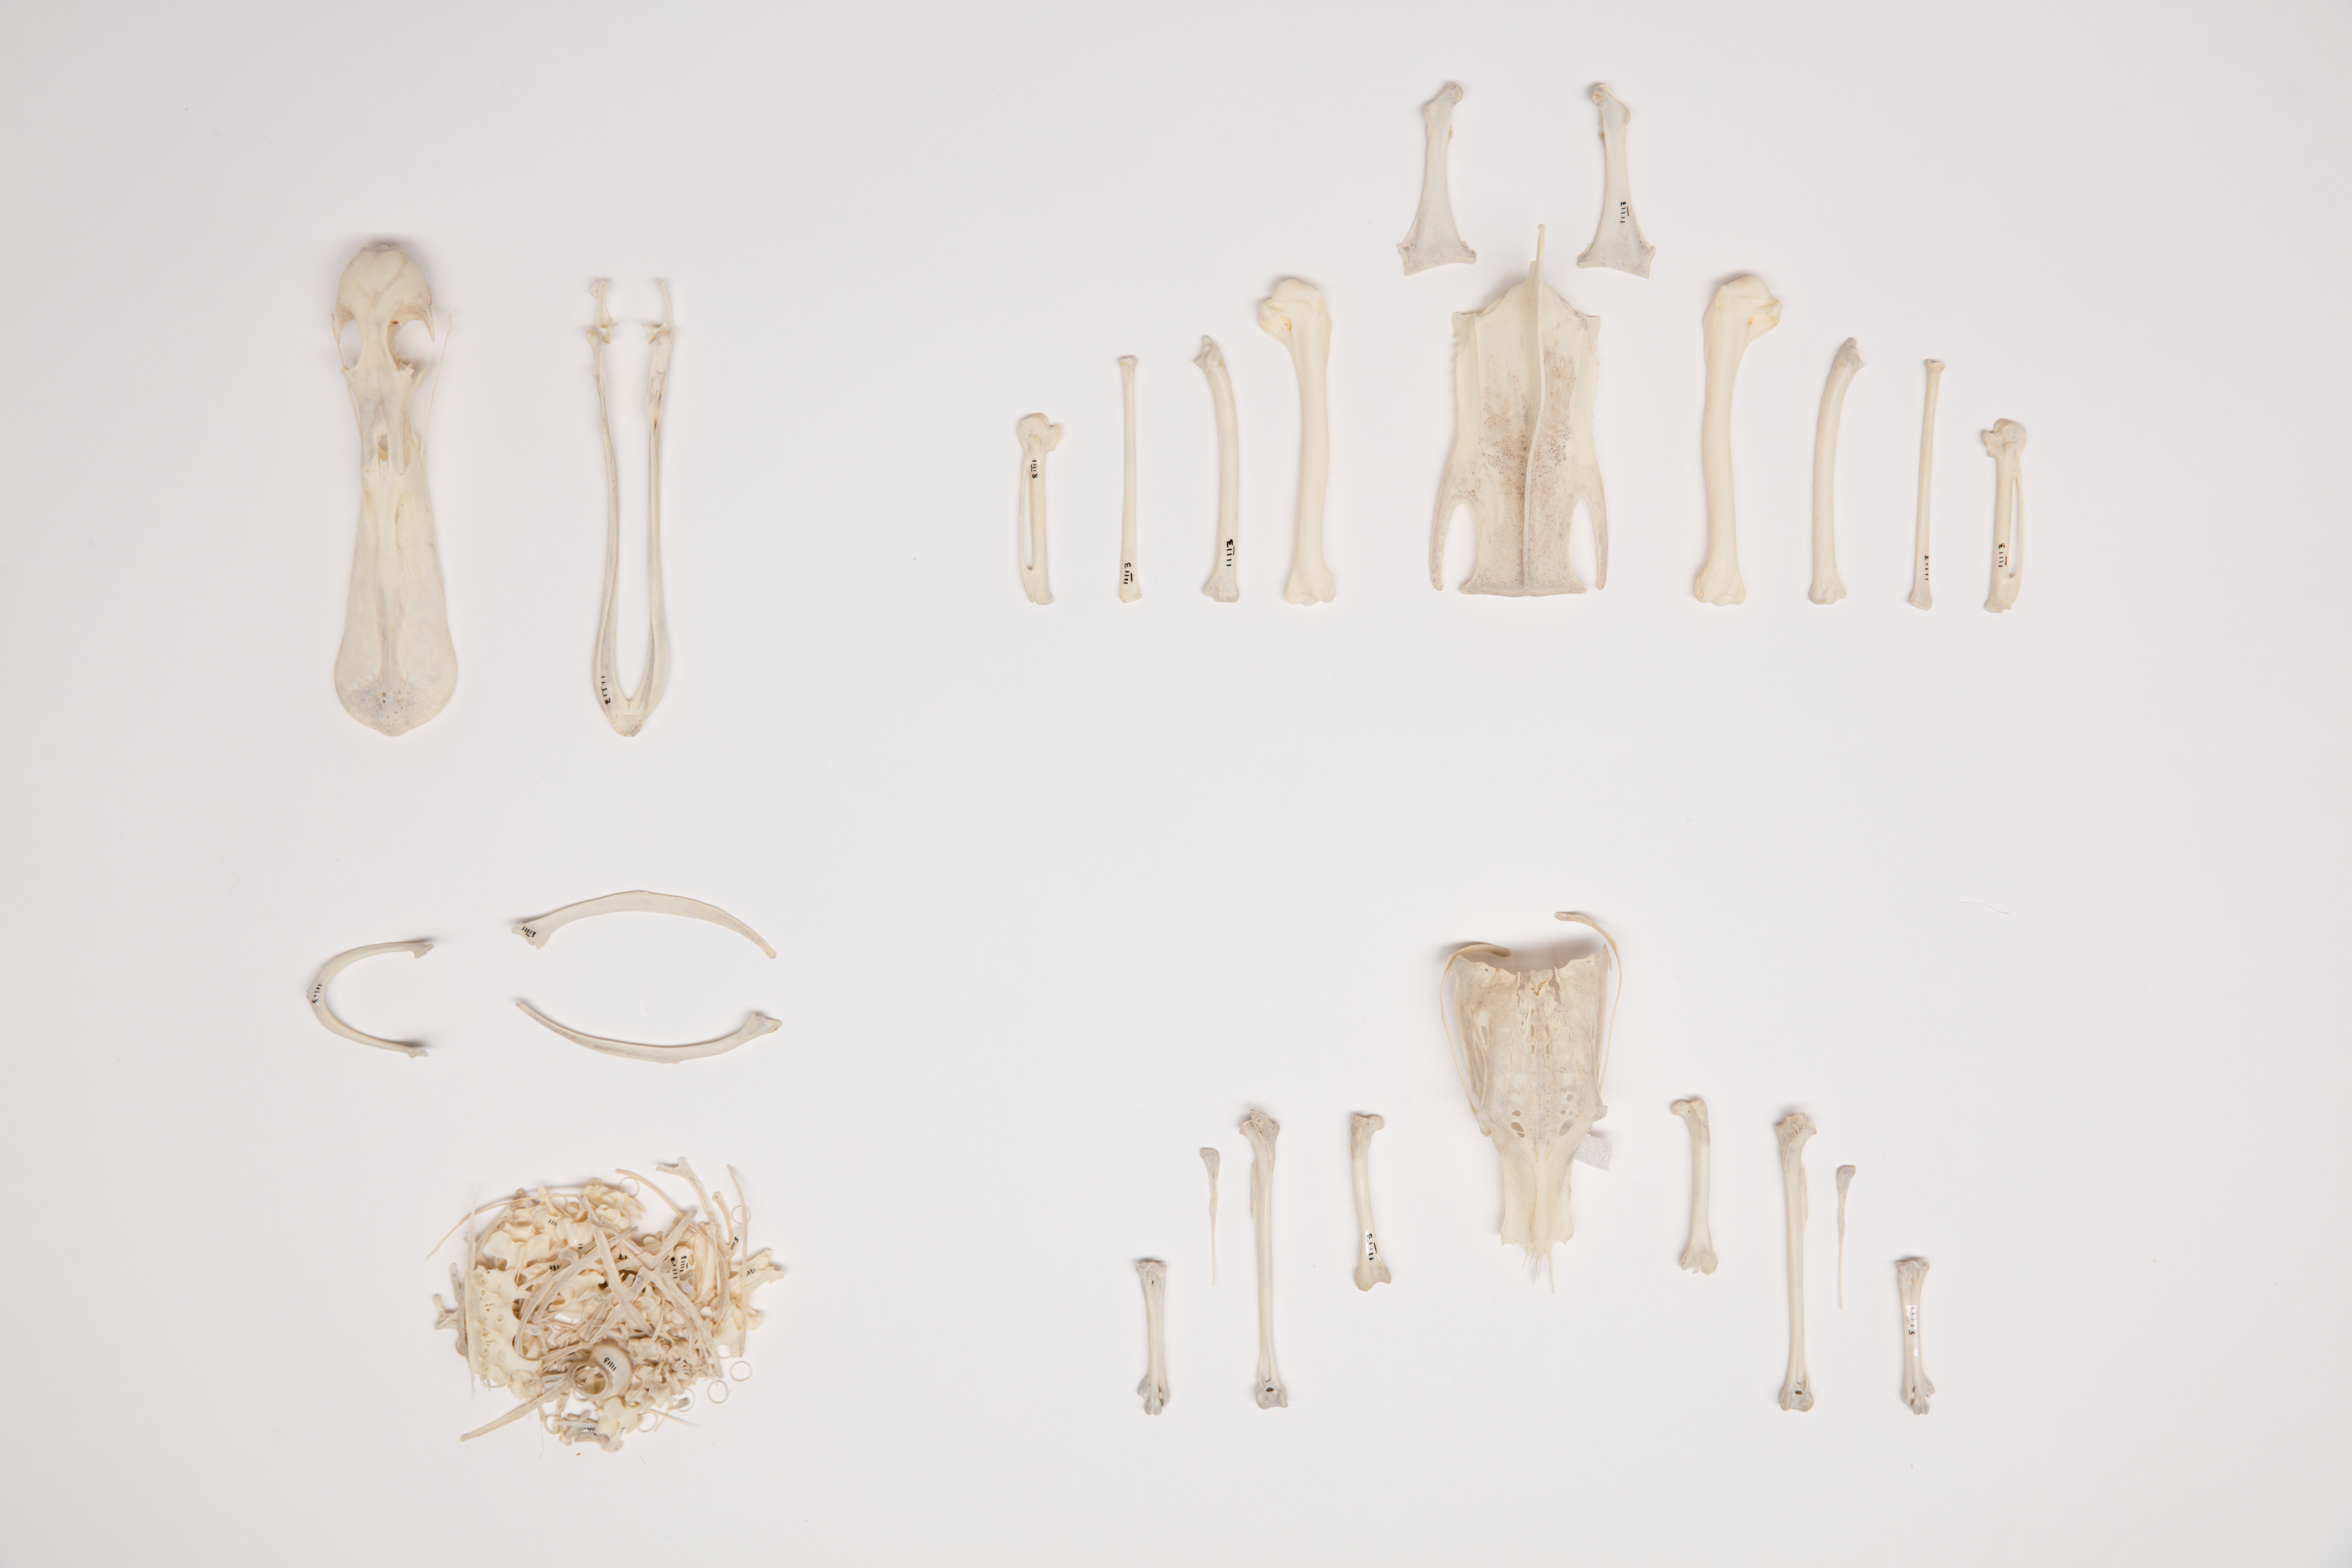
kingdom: Animalia
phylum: Chordata
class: Aves
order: Anseriformes
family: Anatidae
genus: Spatula
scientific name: Spatula rhynchotis
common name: Australian shoveler
